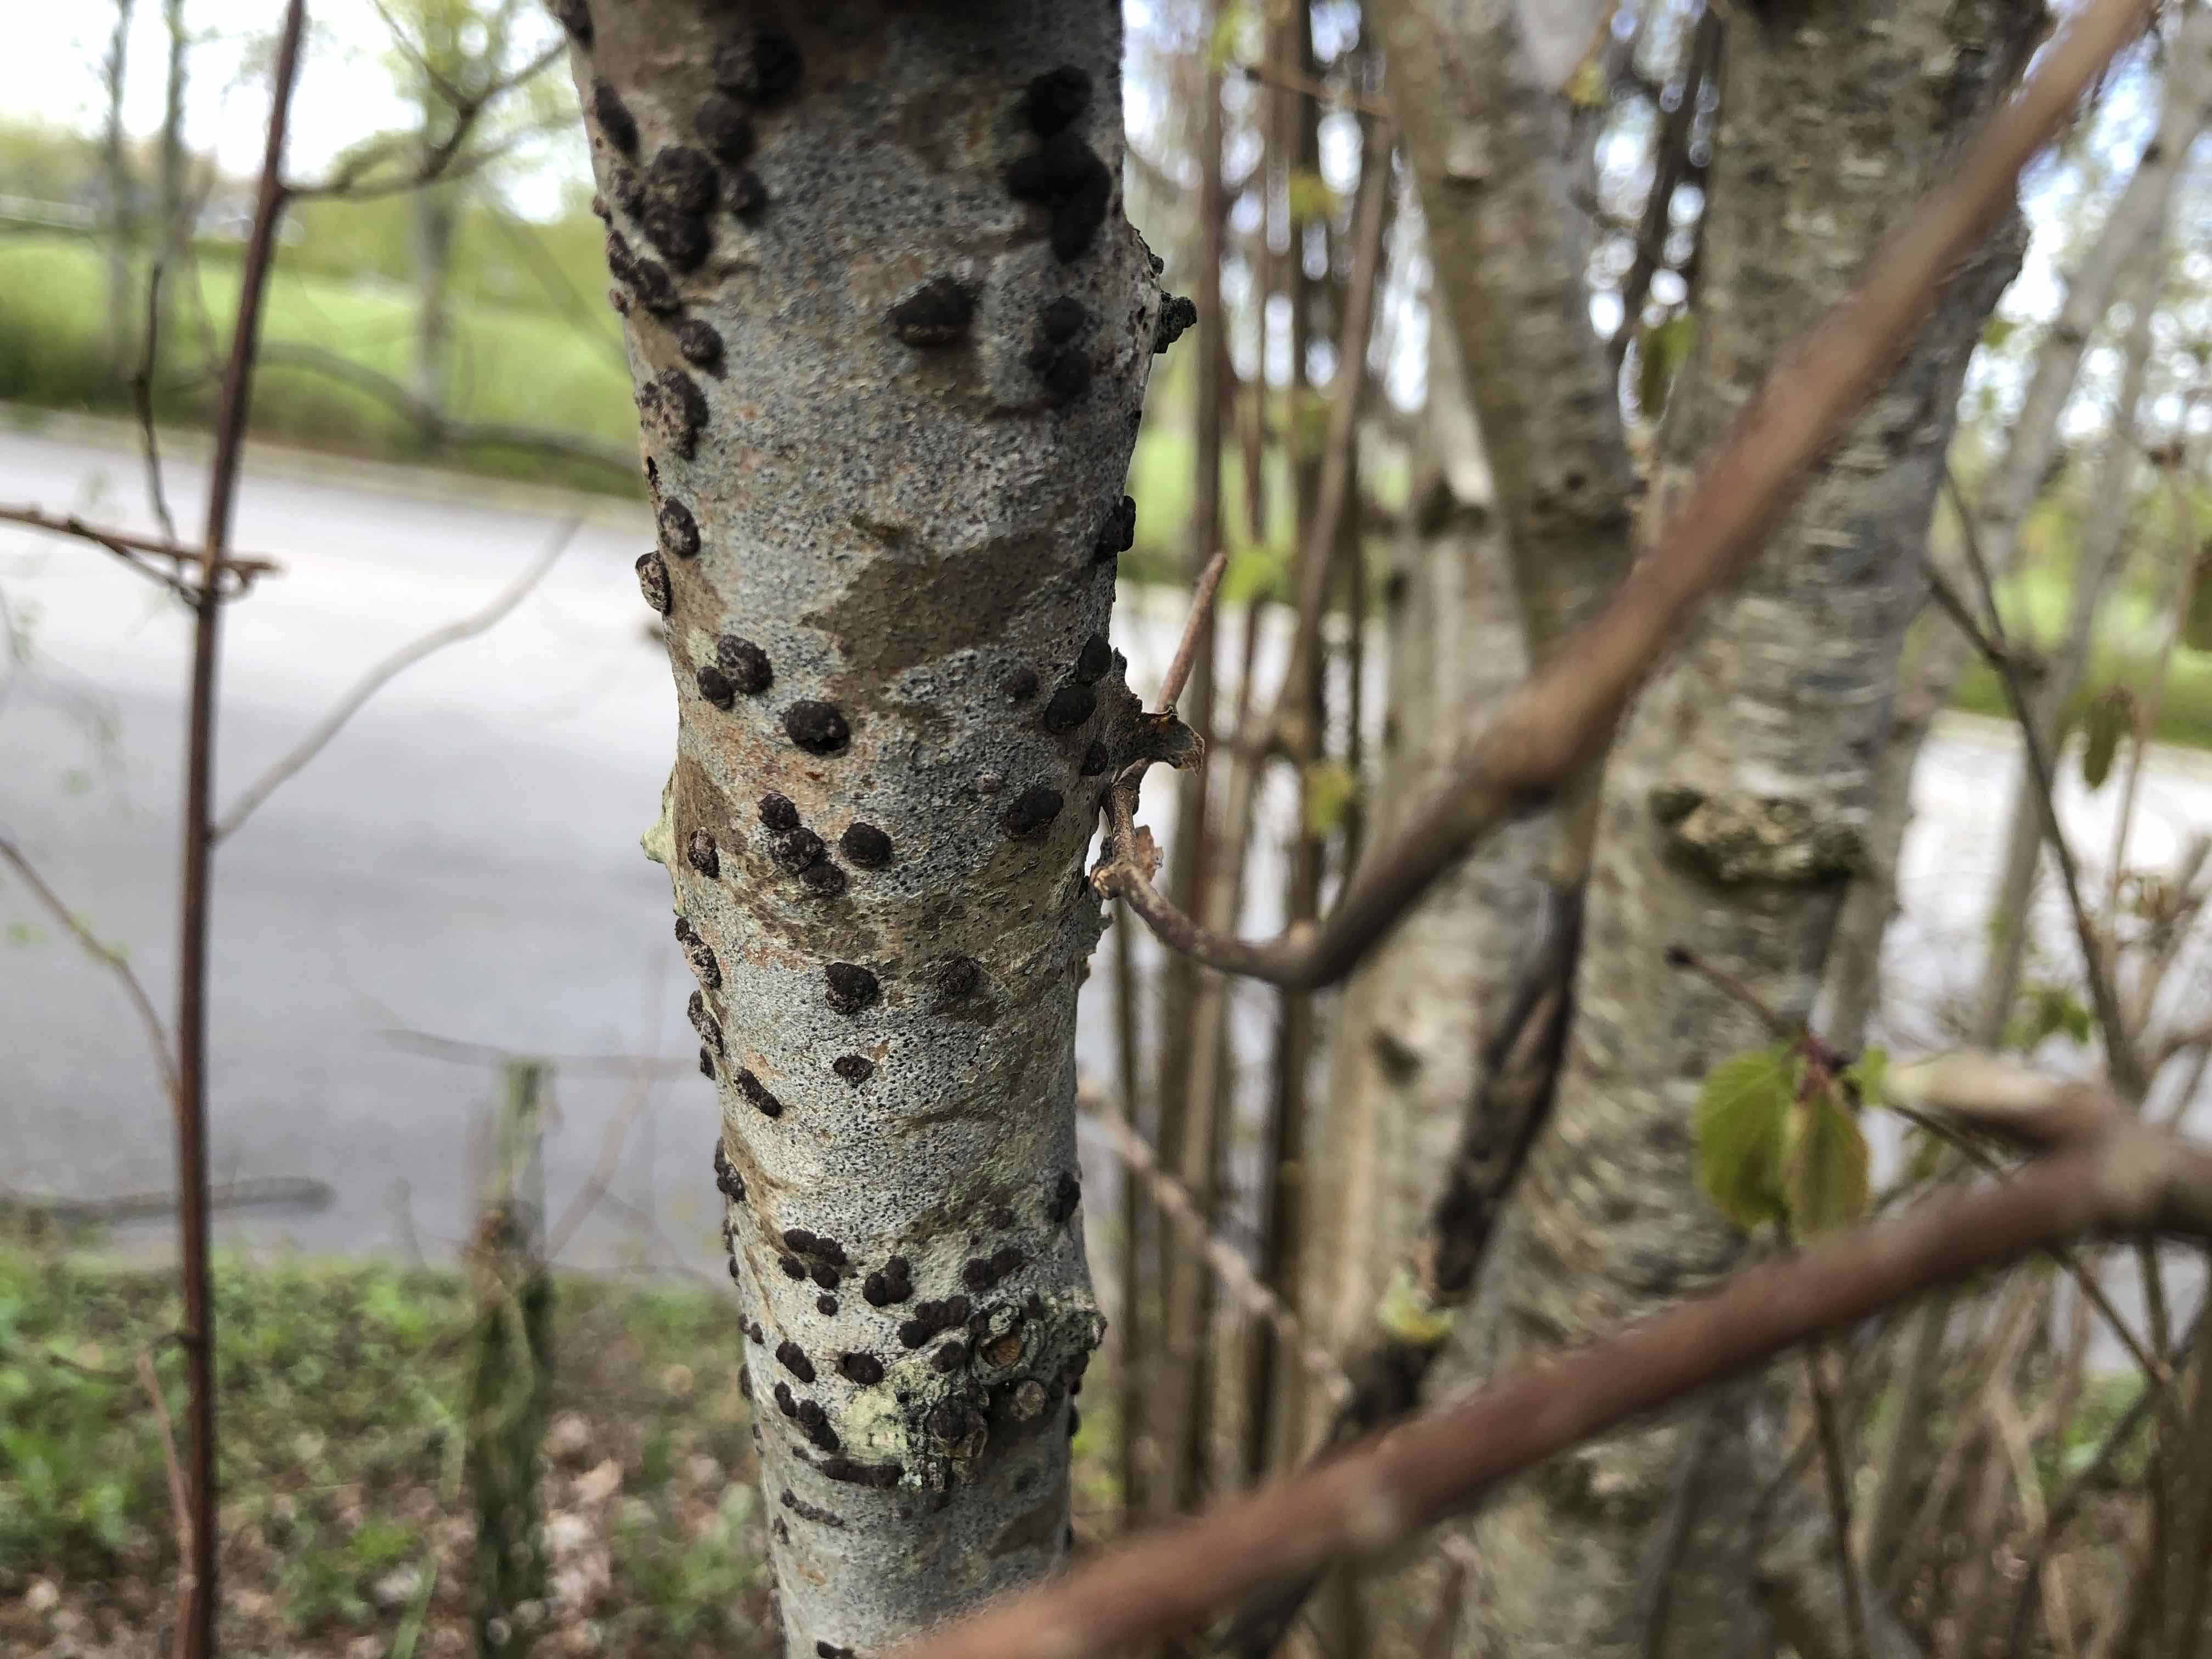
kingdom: Fungi
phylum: Ascomycota
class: Sordariomycetes
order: Xylariales
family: Hypoxylaceae
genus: Hypoxylon
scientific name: Hypoxylon fuscum
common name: kegleformet kulbær
